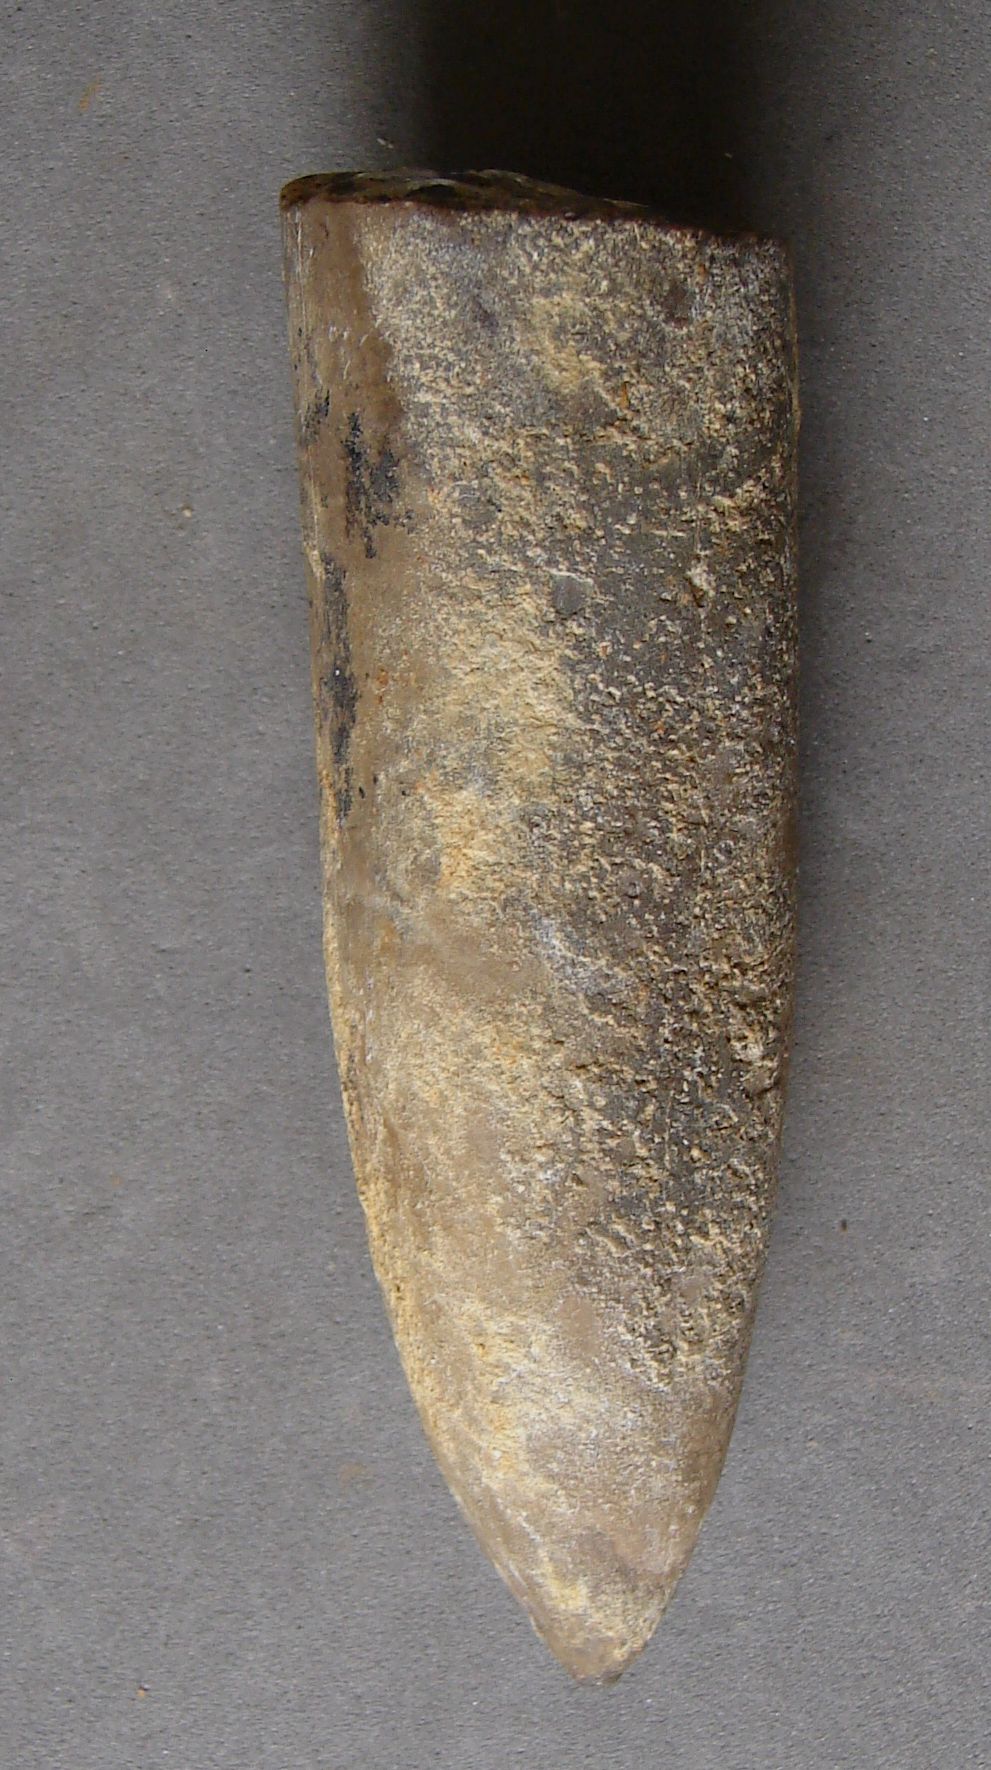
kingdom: Animalia
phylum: Mollusca
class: Cephalopoda
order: Belemnitida
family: Megateuthididae
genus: Acrocoelites
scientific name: Acrocoelites levidensis
